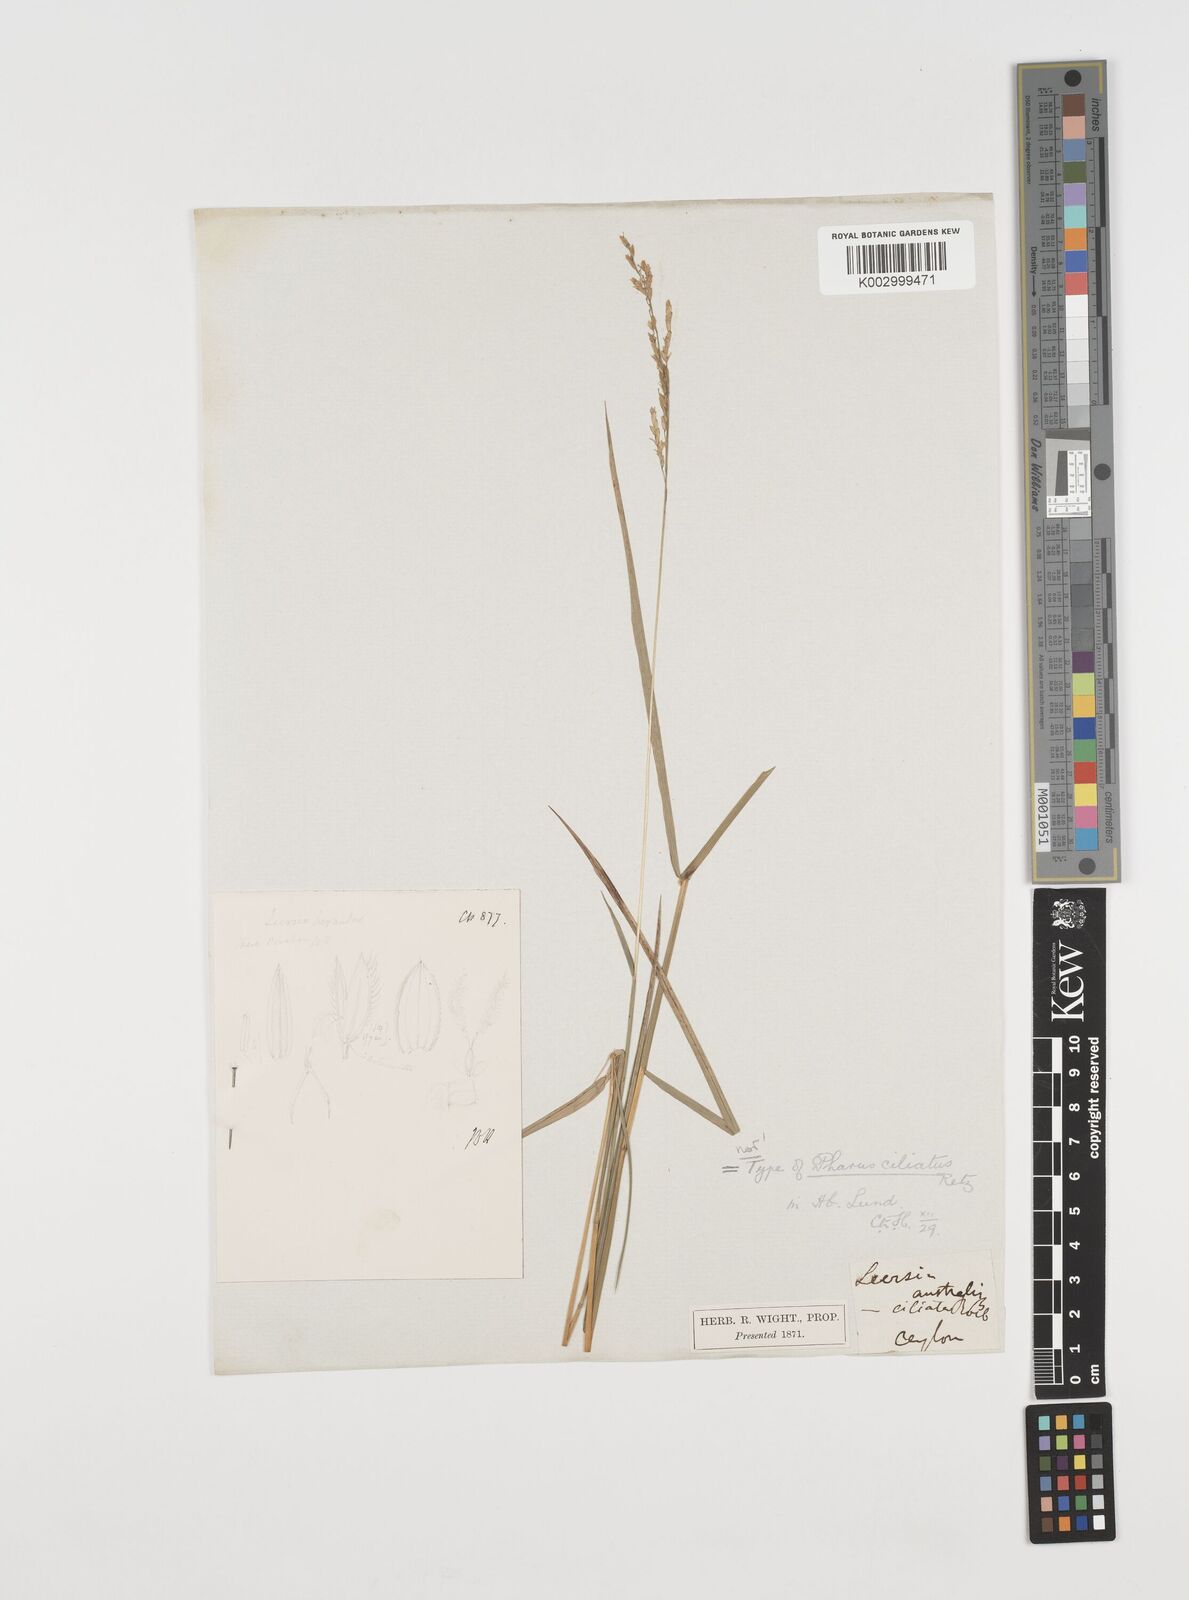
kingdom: Plantae
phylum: Tracheophyta
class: Liliopsida
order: Poales
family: Poaceae
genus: Leersia
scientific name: Leersia hexandra
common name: Southern cut grass
